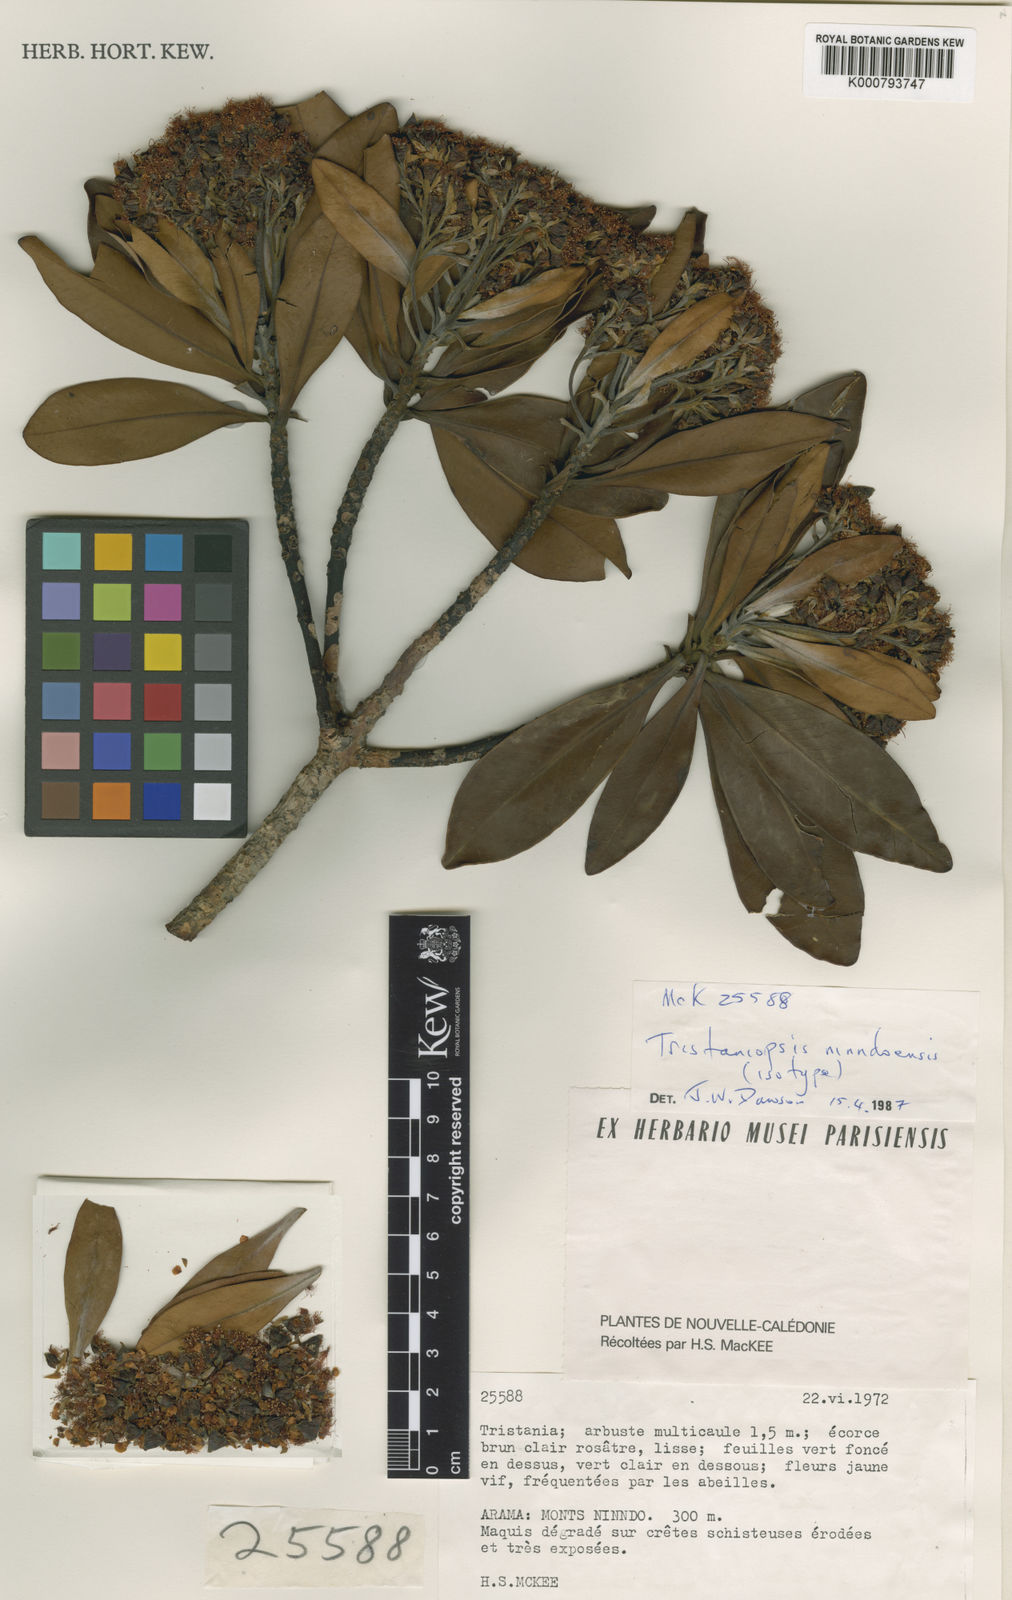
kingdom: Plantae
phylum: Tracheophyta
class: Magnoliopsida
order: Myrtales
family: Myrtaceae
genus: Tristaniopsis
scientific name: Tristaniopsis ninndoensis
